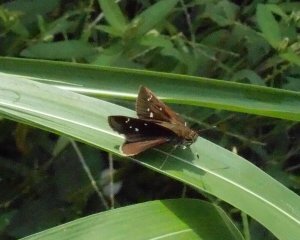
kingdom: Animalia
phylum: Arthropoda
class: Insecta
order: Lepidoptera
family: Hesperiidae
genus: Lerema
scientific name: Lerema accius
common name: Clouded Skipper
